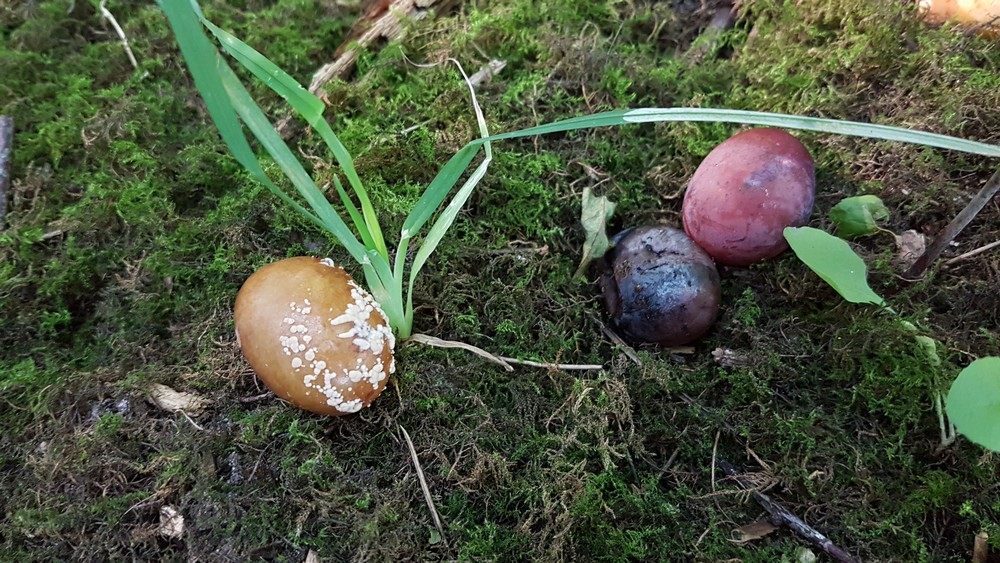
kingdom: Fungi
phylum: Ascomycota
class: Leotiomycetes
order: Helotiales
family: Sclerotiniaceae
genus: Monilinia
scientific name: Monilinia laxa
